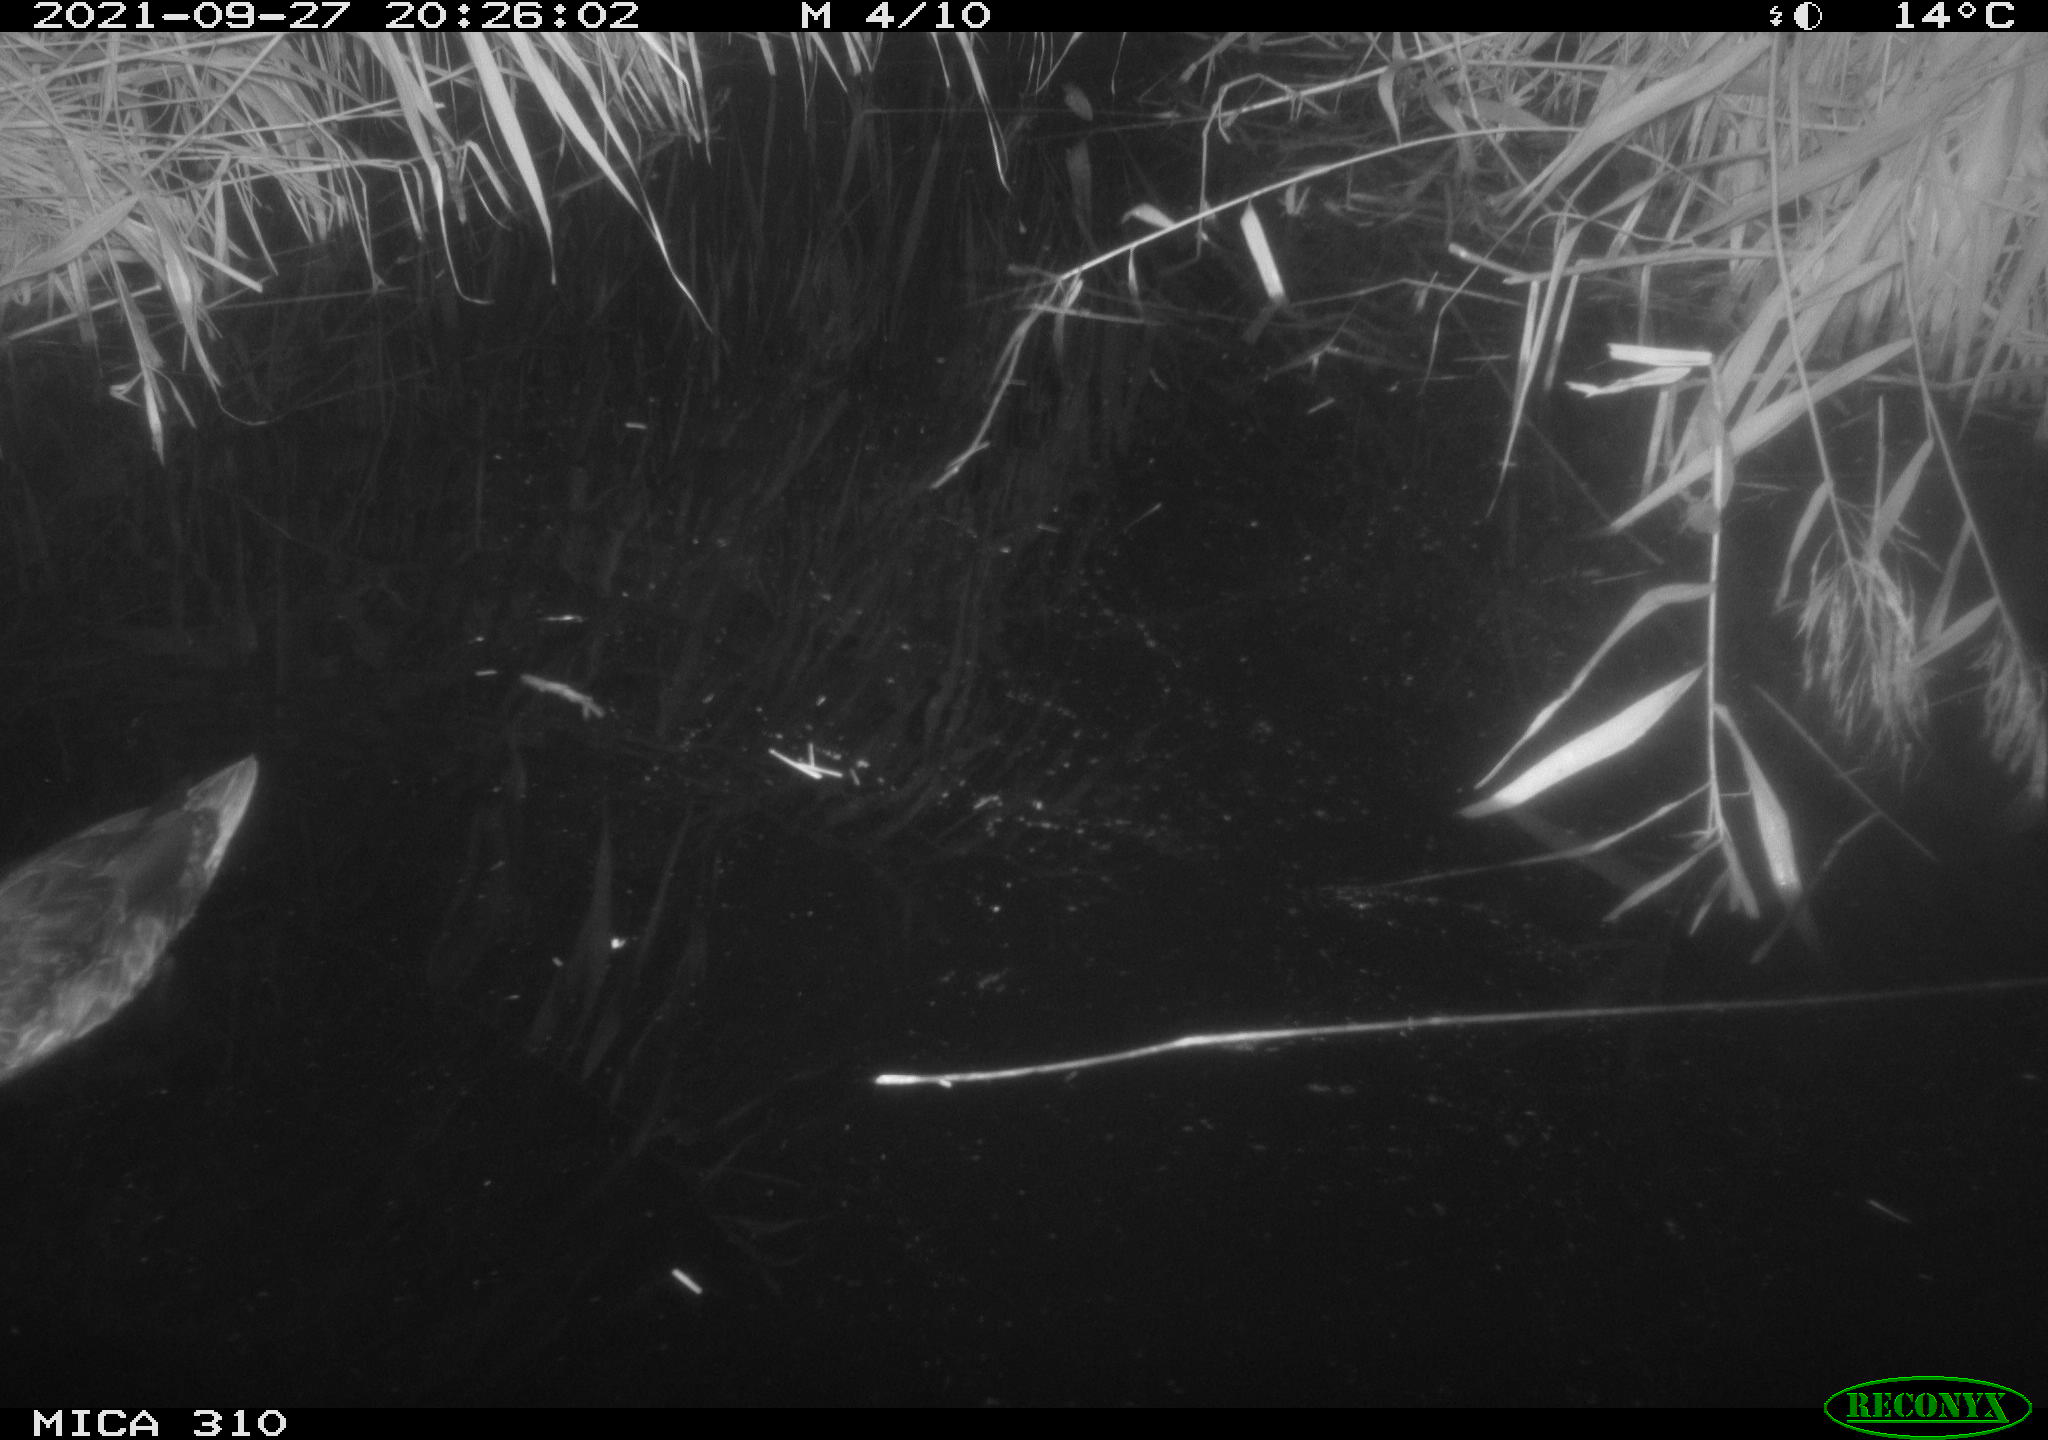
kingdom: Animalia
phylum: Chordata
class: Aves
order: Anseriformes
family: Anatidae
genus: Mareca
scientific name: Mareca strepera
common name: Gadwall
